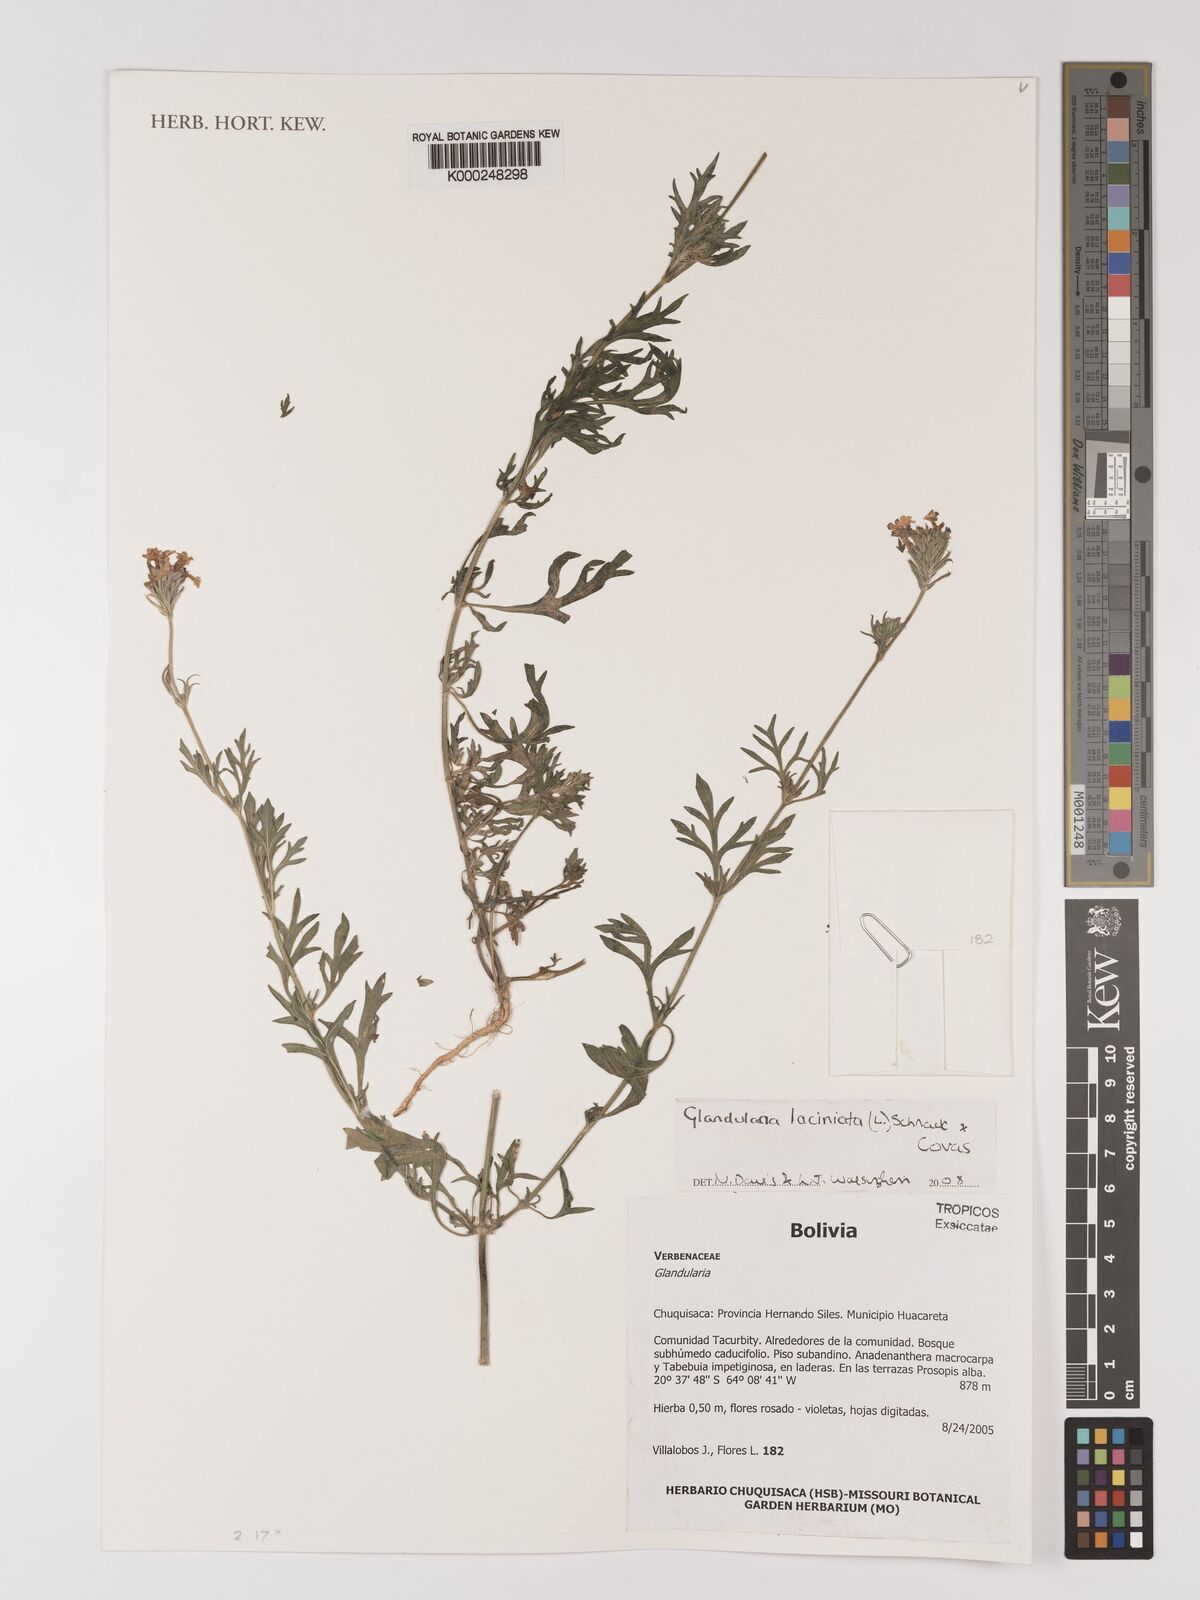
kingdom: Plantae
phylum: Tracheophyta
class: Magnoliopsida
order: Lamiales
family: Verbenaceae
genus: Verbena
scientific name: Verbena laciniata
